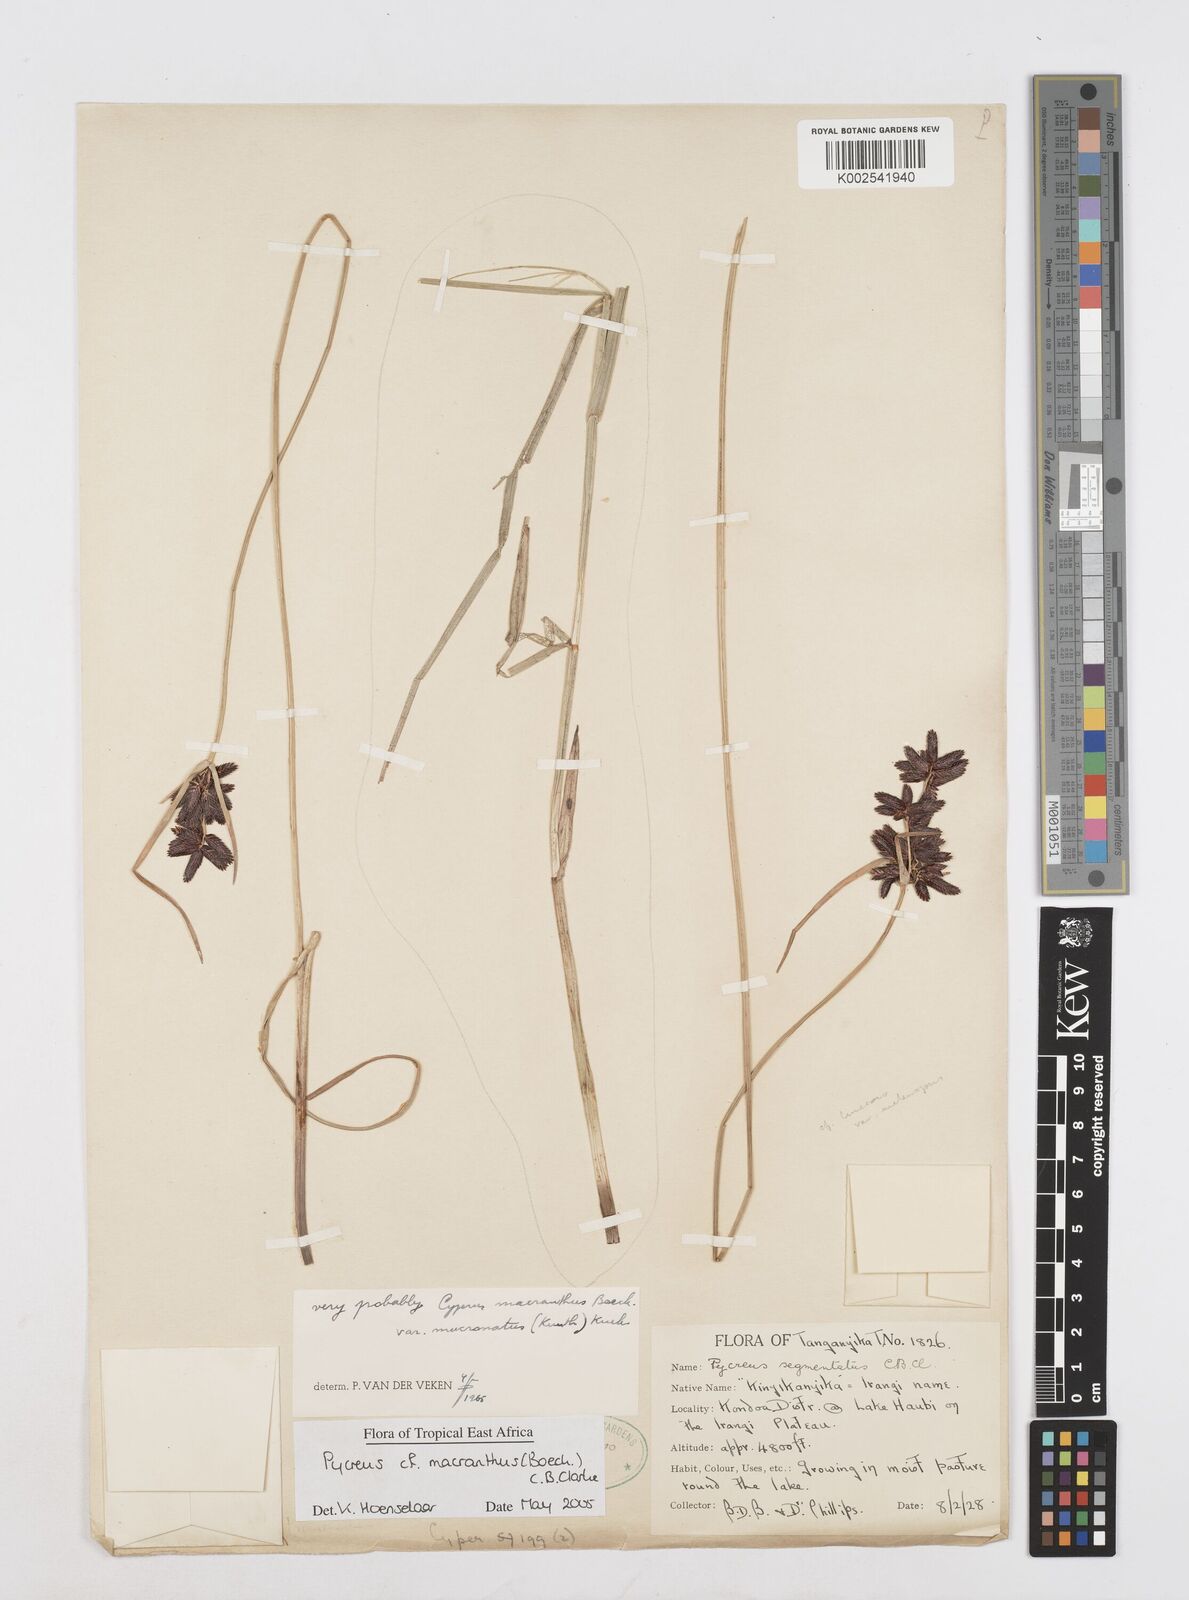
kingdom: Plantae
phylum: Tracheophyta
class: Liliopsida
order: Poales
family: Cyperaceae
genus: Cyperus
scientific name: Cyperus
